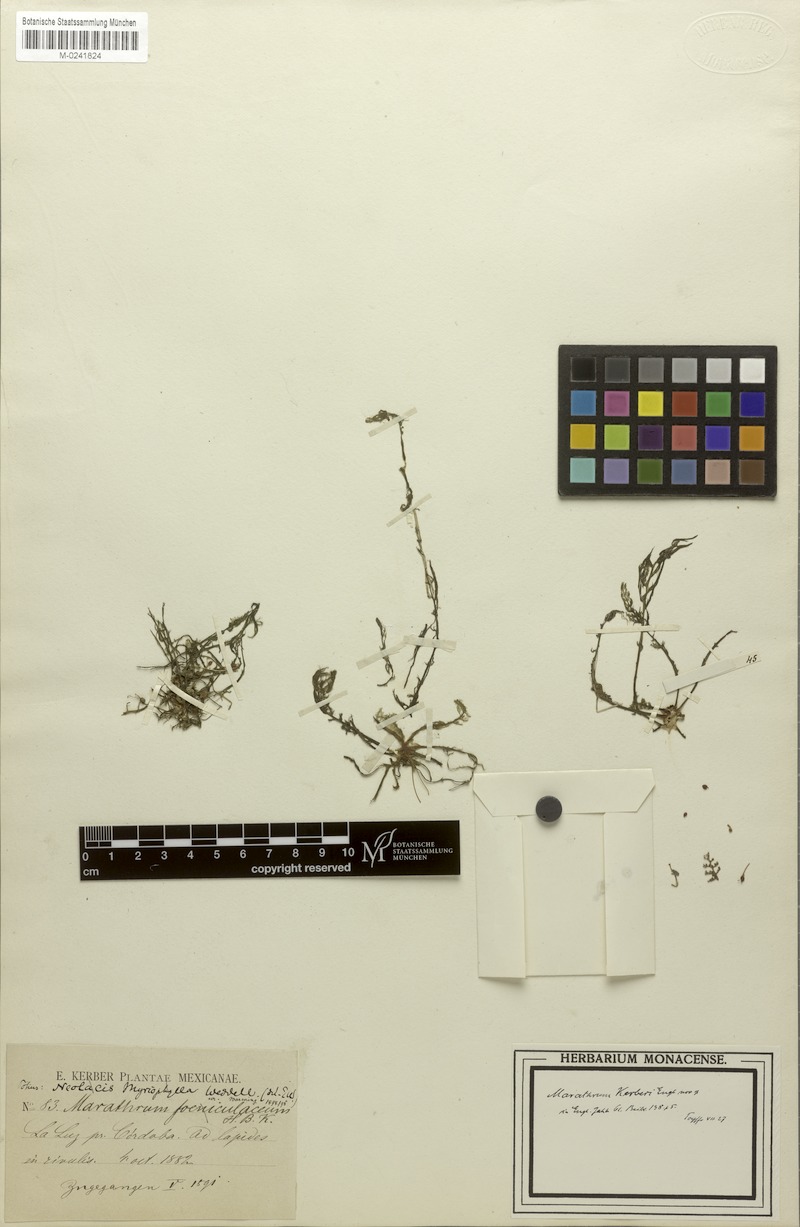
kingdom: Plantae
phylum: Tracheophyta
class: Magnoliopsida
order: Malpighiales
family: Podostemaceae
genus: Marathrum
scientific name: Marathrum tenue
